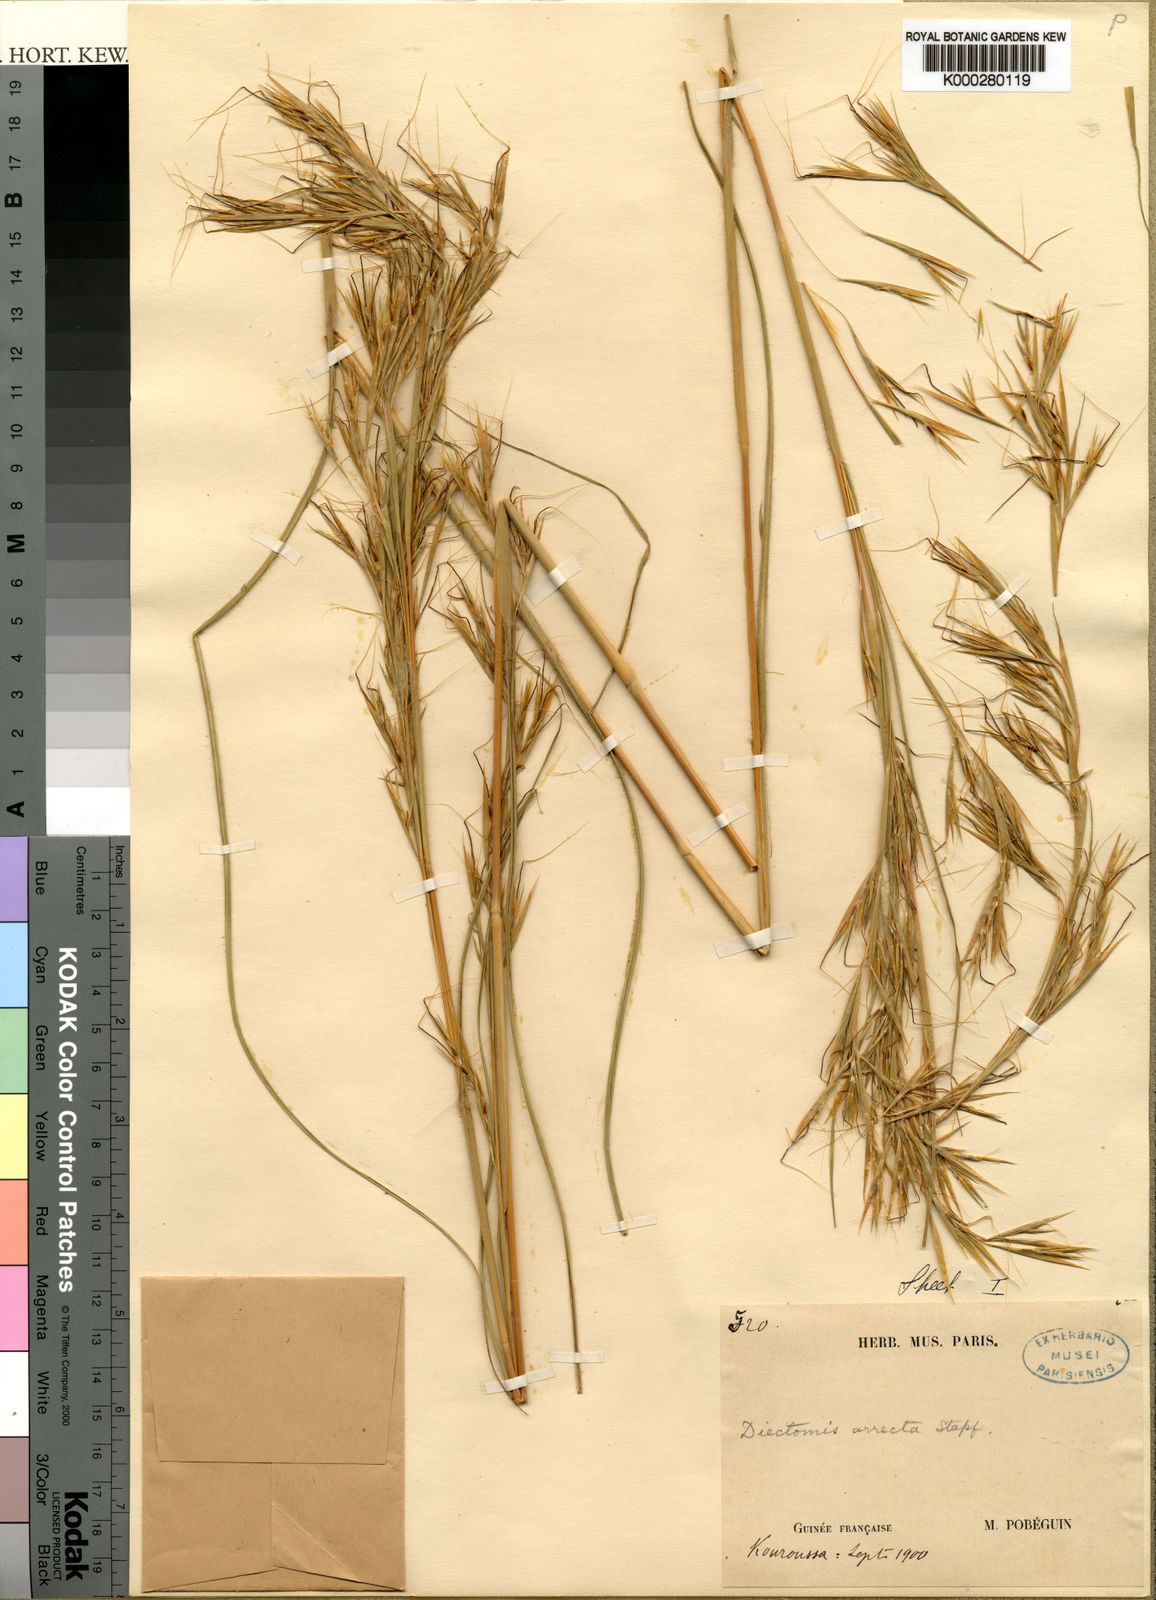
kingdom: Plantae
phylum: Tracheophyta
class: Liliopsida
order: Poales
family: Poaceae
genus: Anadelphia
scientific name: Anadelphia afzeliana
